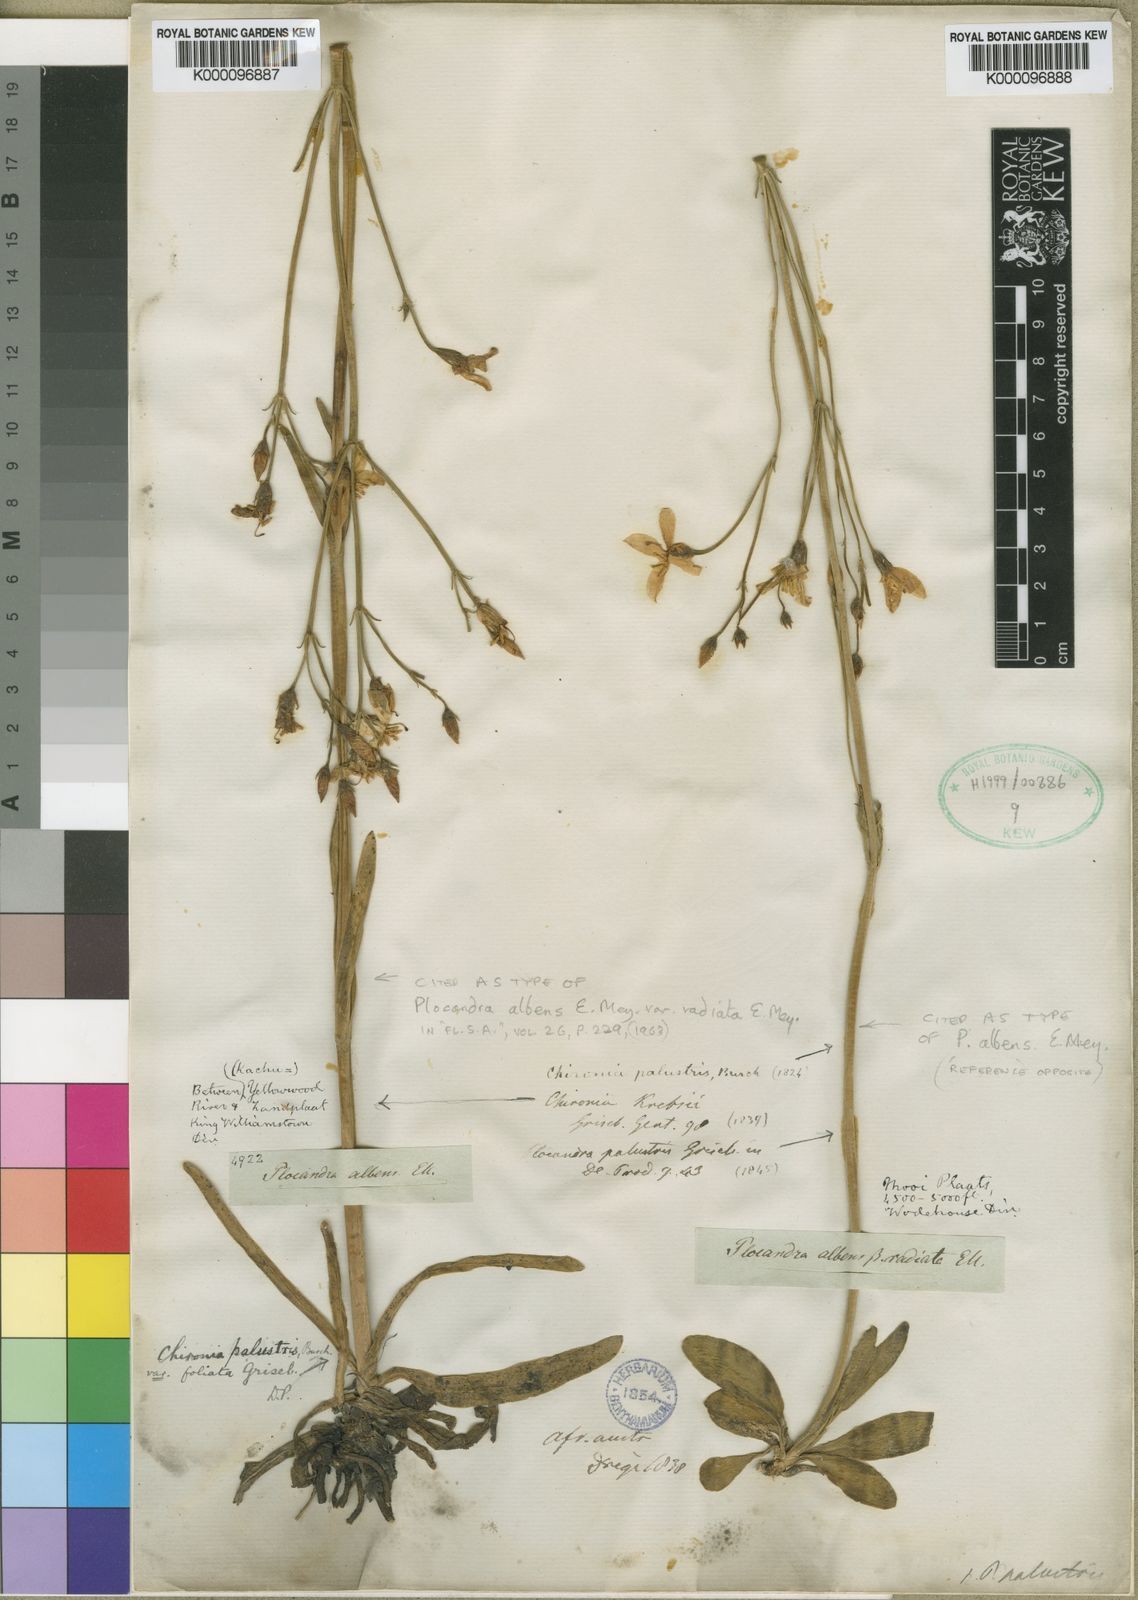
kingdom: Plantae
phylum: Tracheophyta
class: Magnoliopsida
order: Gentianales
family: Gentianaceae
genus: Chironia
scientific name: Chironia palustris
